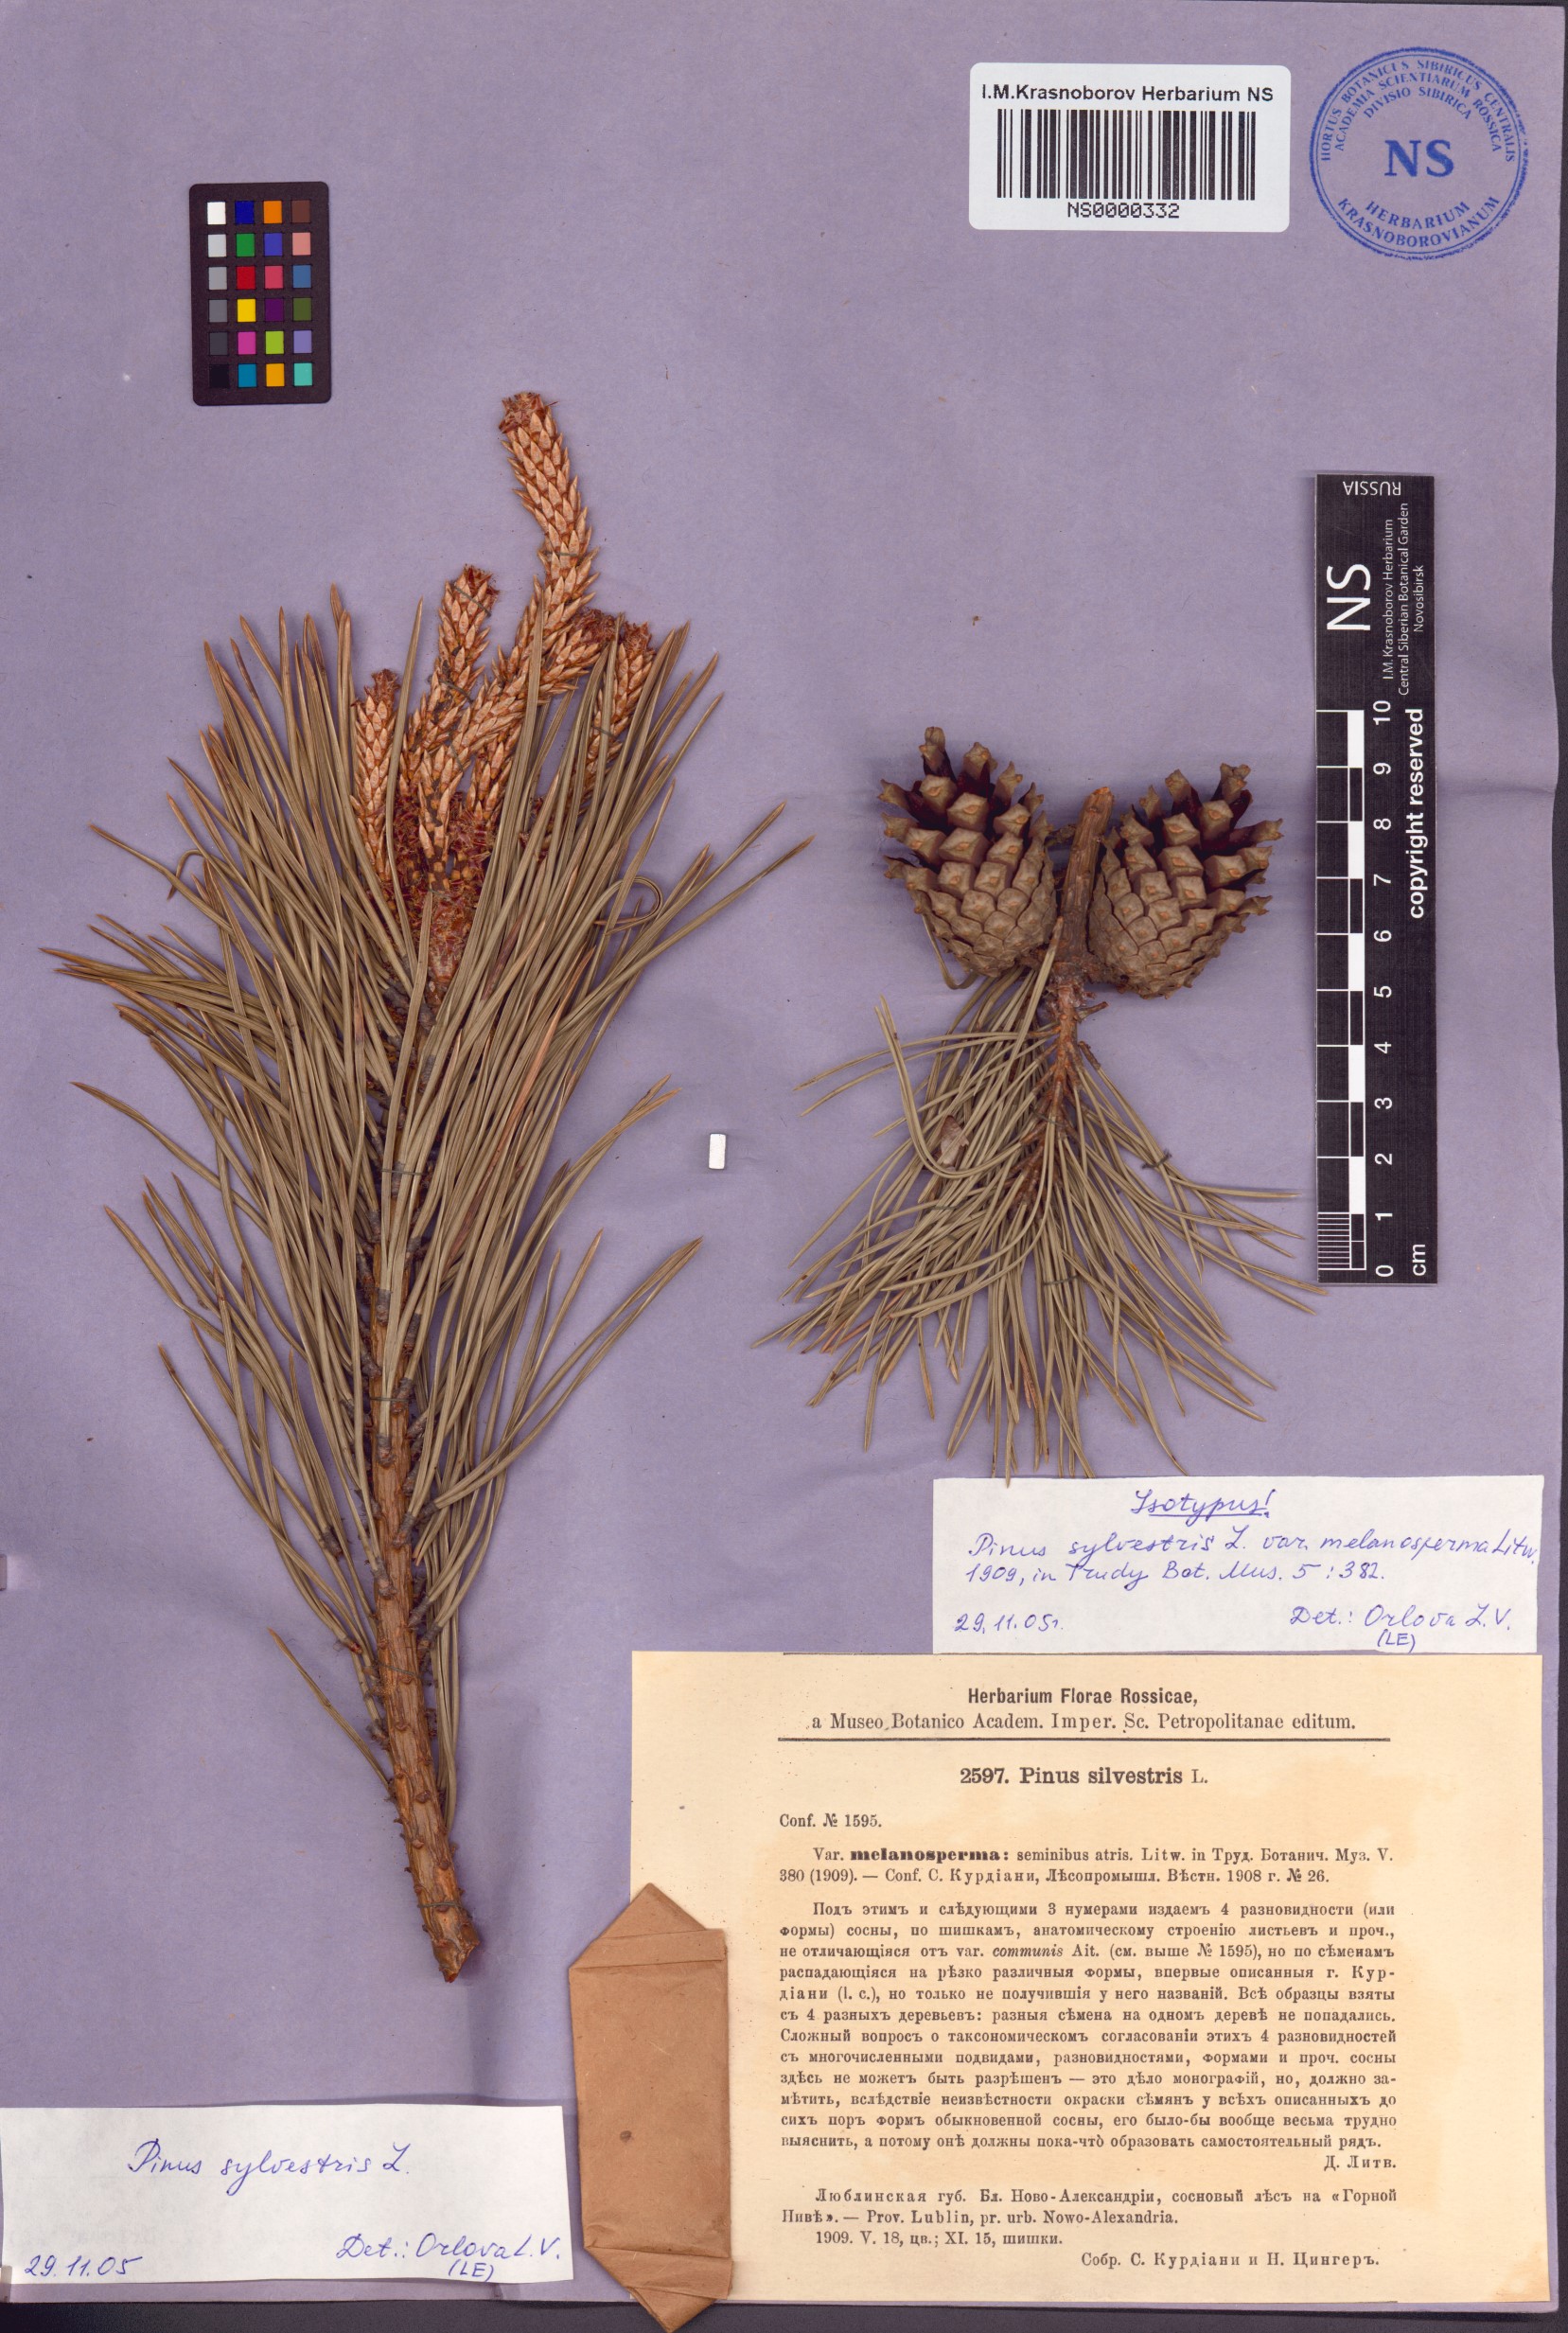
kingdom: Plantae
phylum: Tracheophyta
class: Pinopsida
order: Pinales
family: Pinaceae
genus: Pinus
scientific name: Pinus sylvestris
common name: Scots pine
